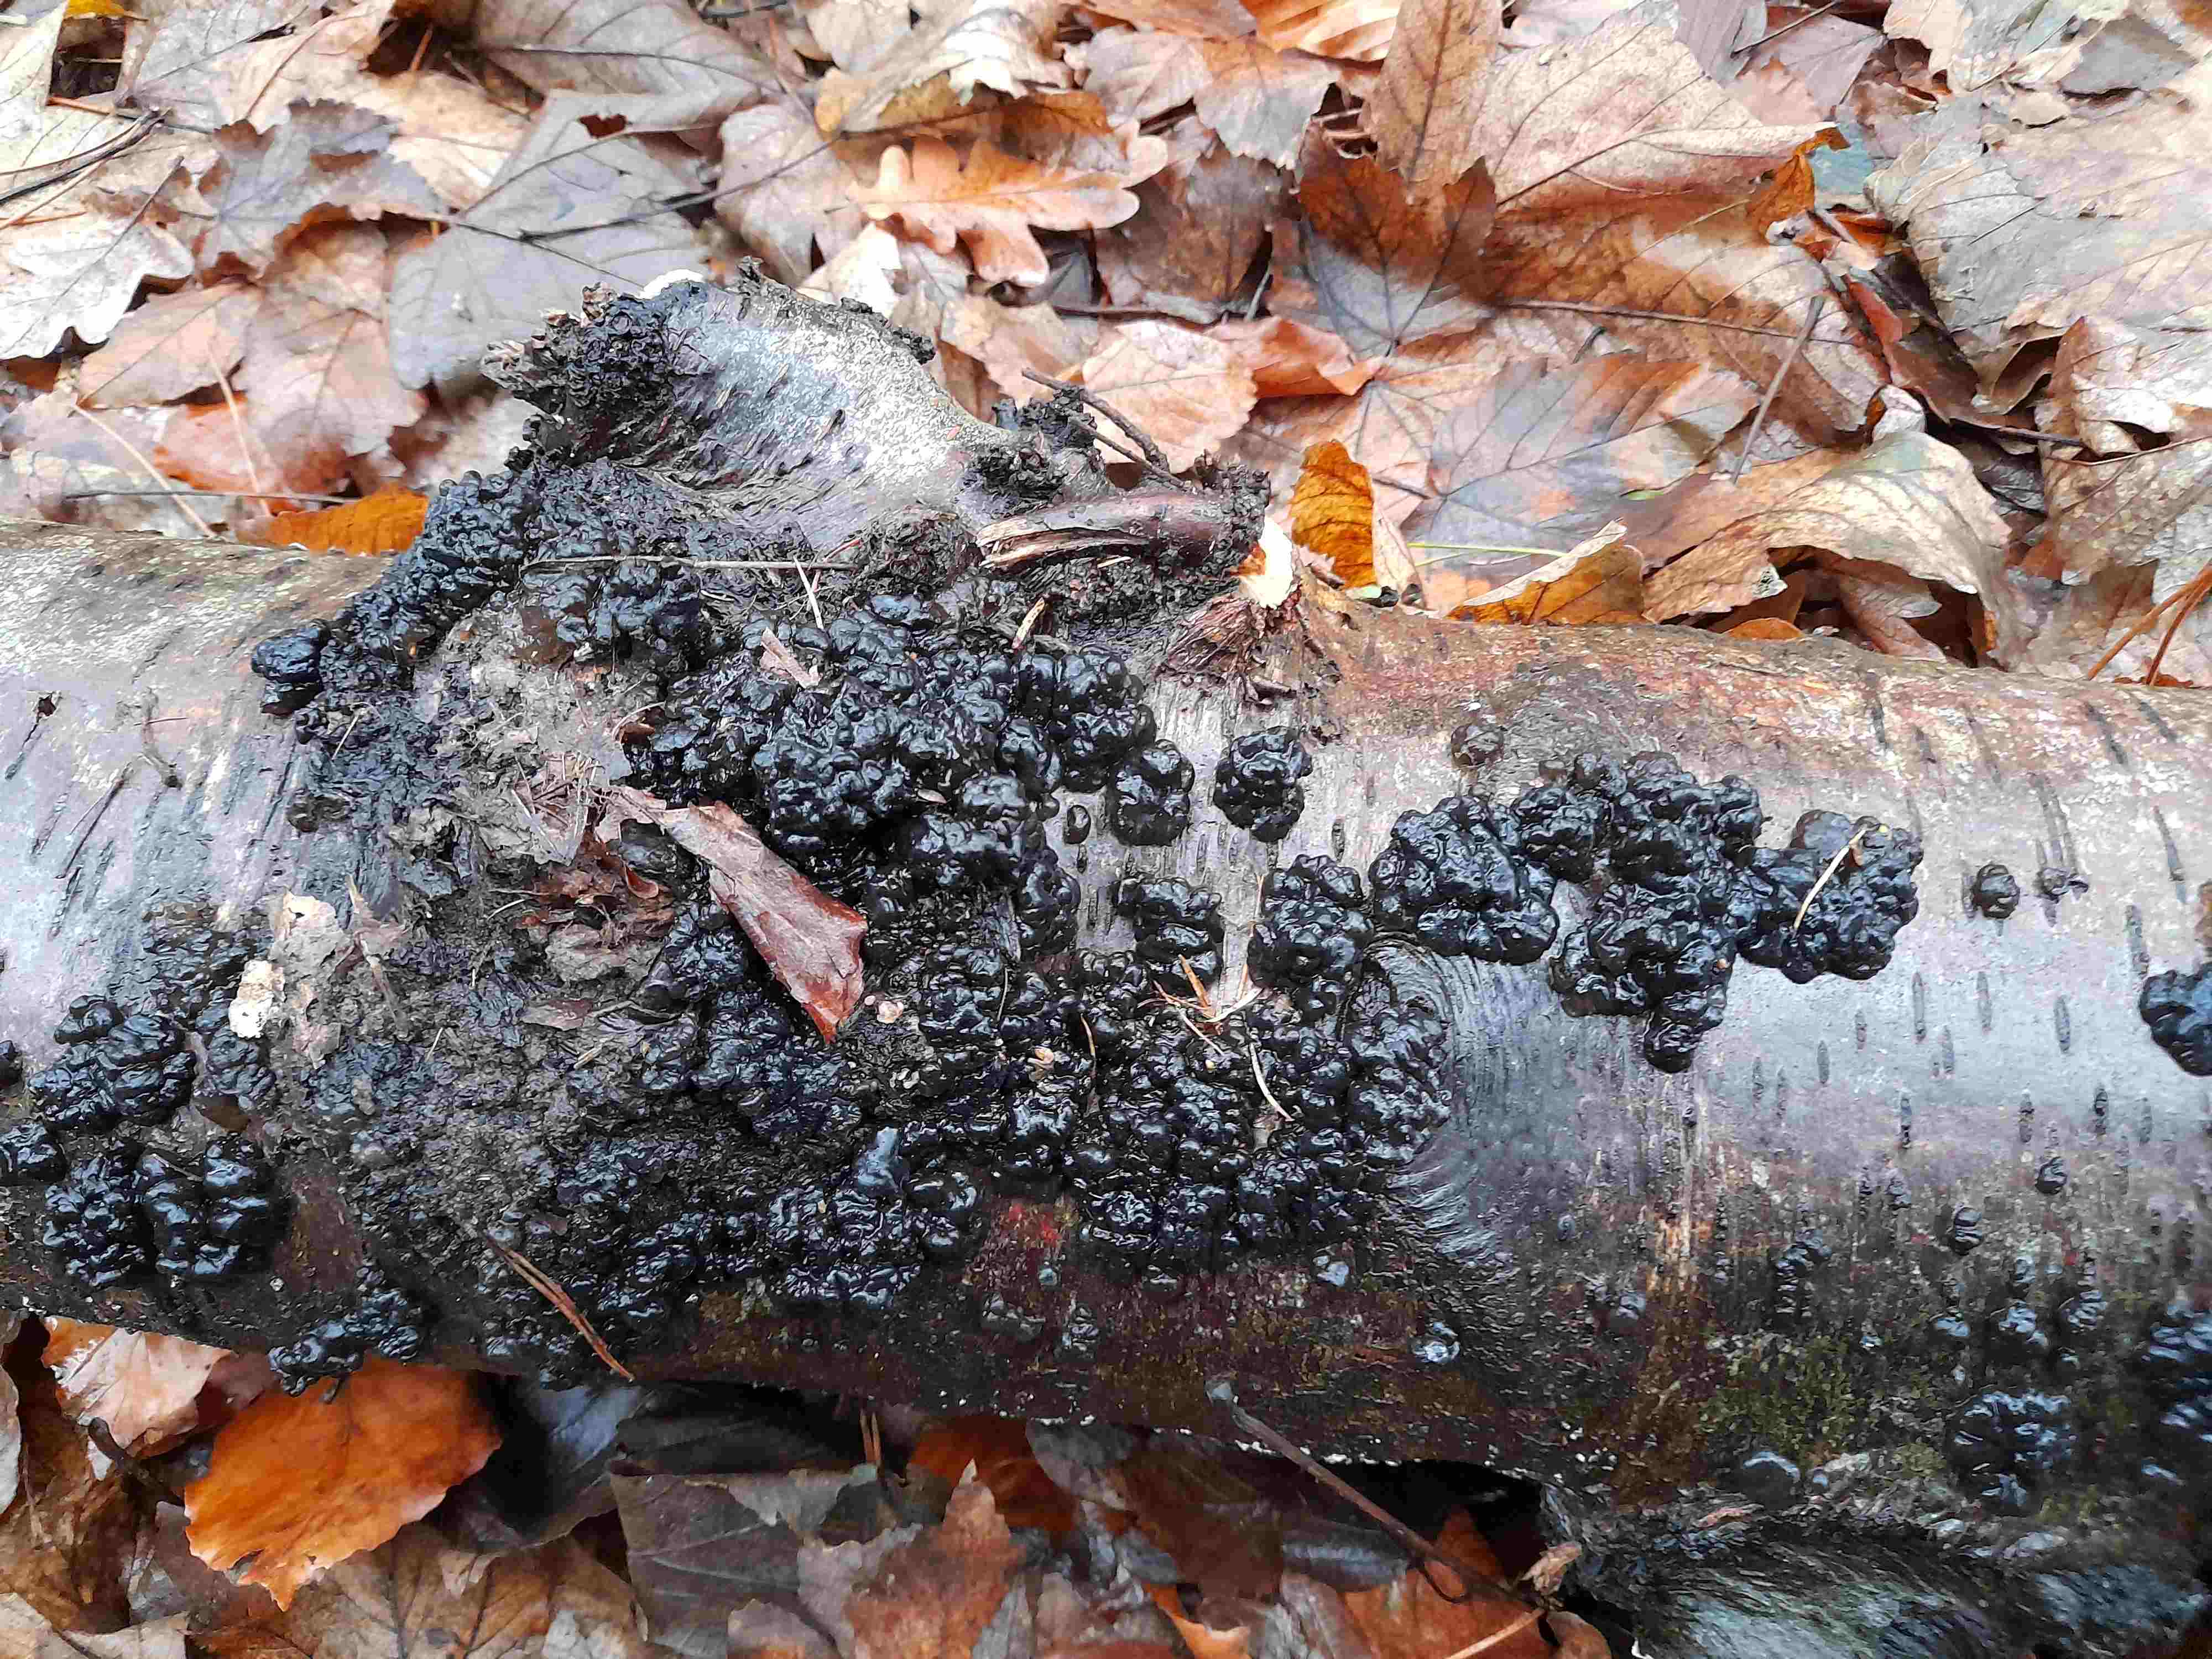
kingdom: Fungi
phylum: Basidiomycota
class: Agaricomycetes
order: Auriculariales
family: Auriculariaceae
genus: Exidia
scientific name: Exidia nigricans
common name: almindelig bævretop
